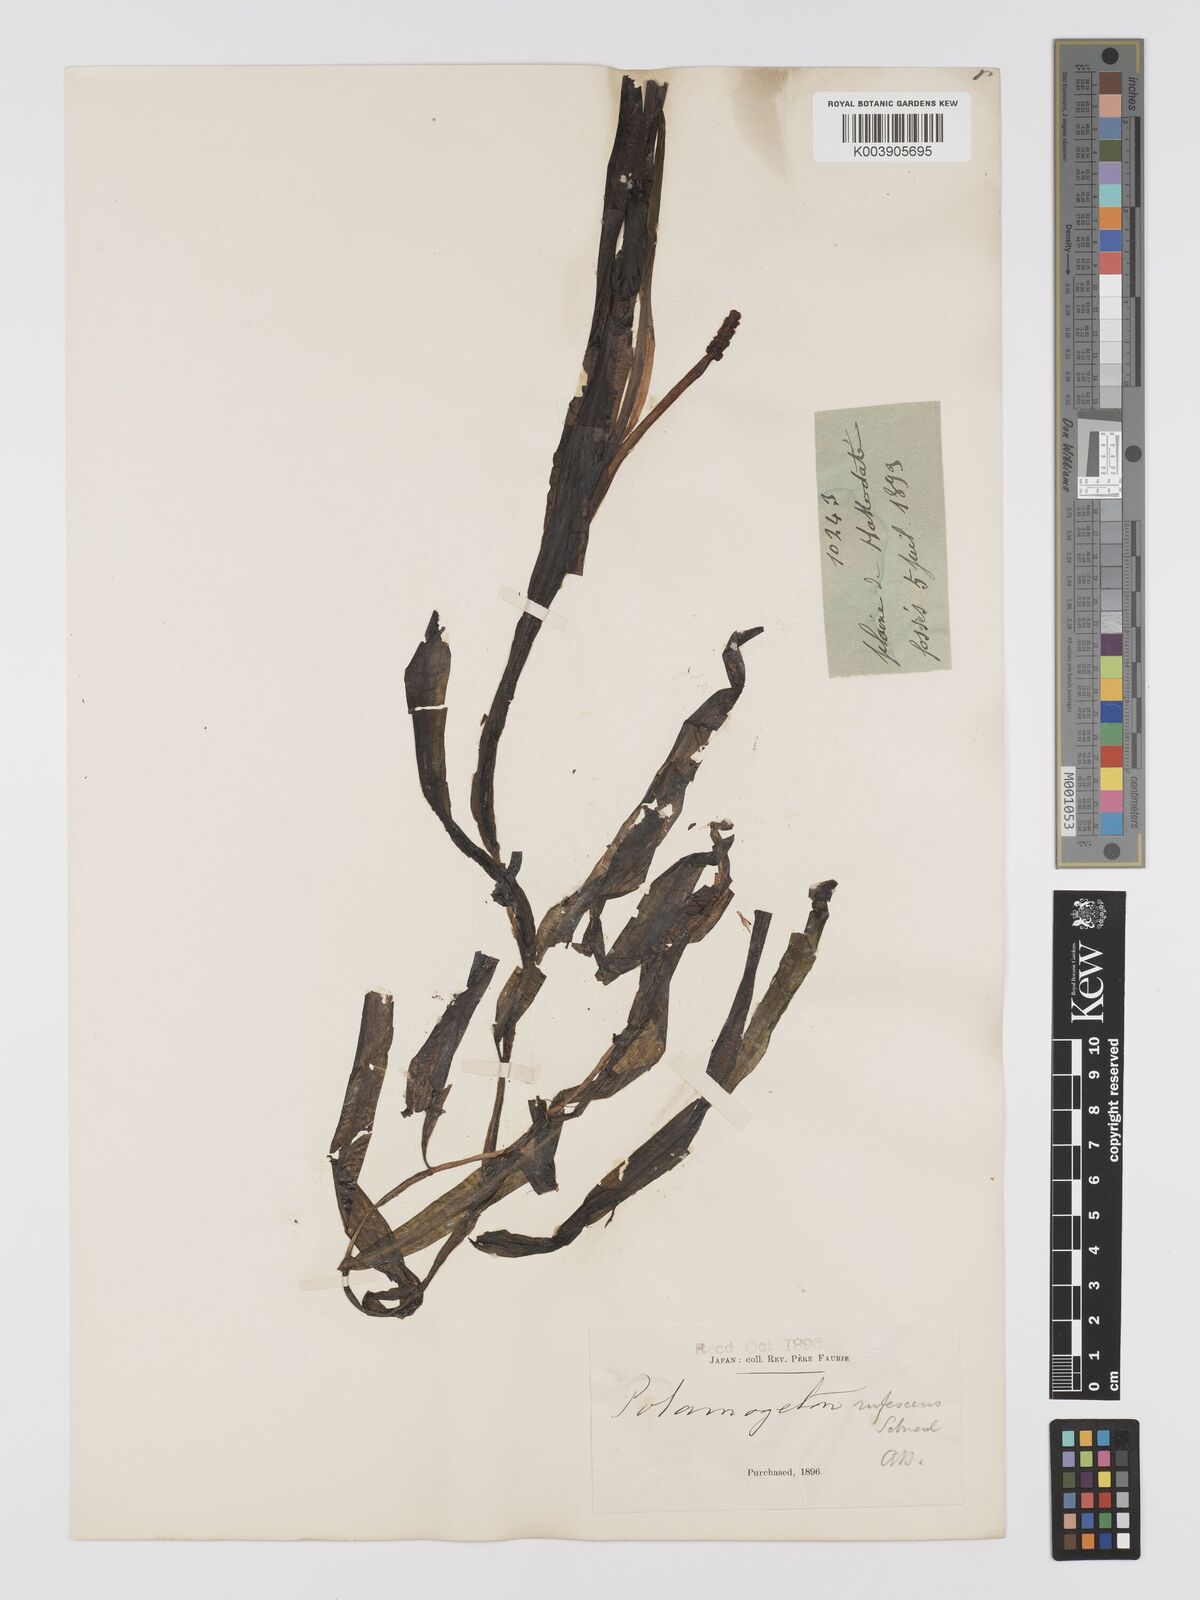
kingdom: Plantae
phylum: Tracheophyta
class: Liliopsida
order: Alismatales
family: Potamogetonaceae
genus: Potamogeton
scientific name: Potamogeton alpinus
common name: Red pondweed
